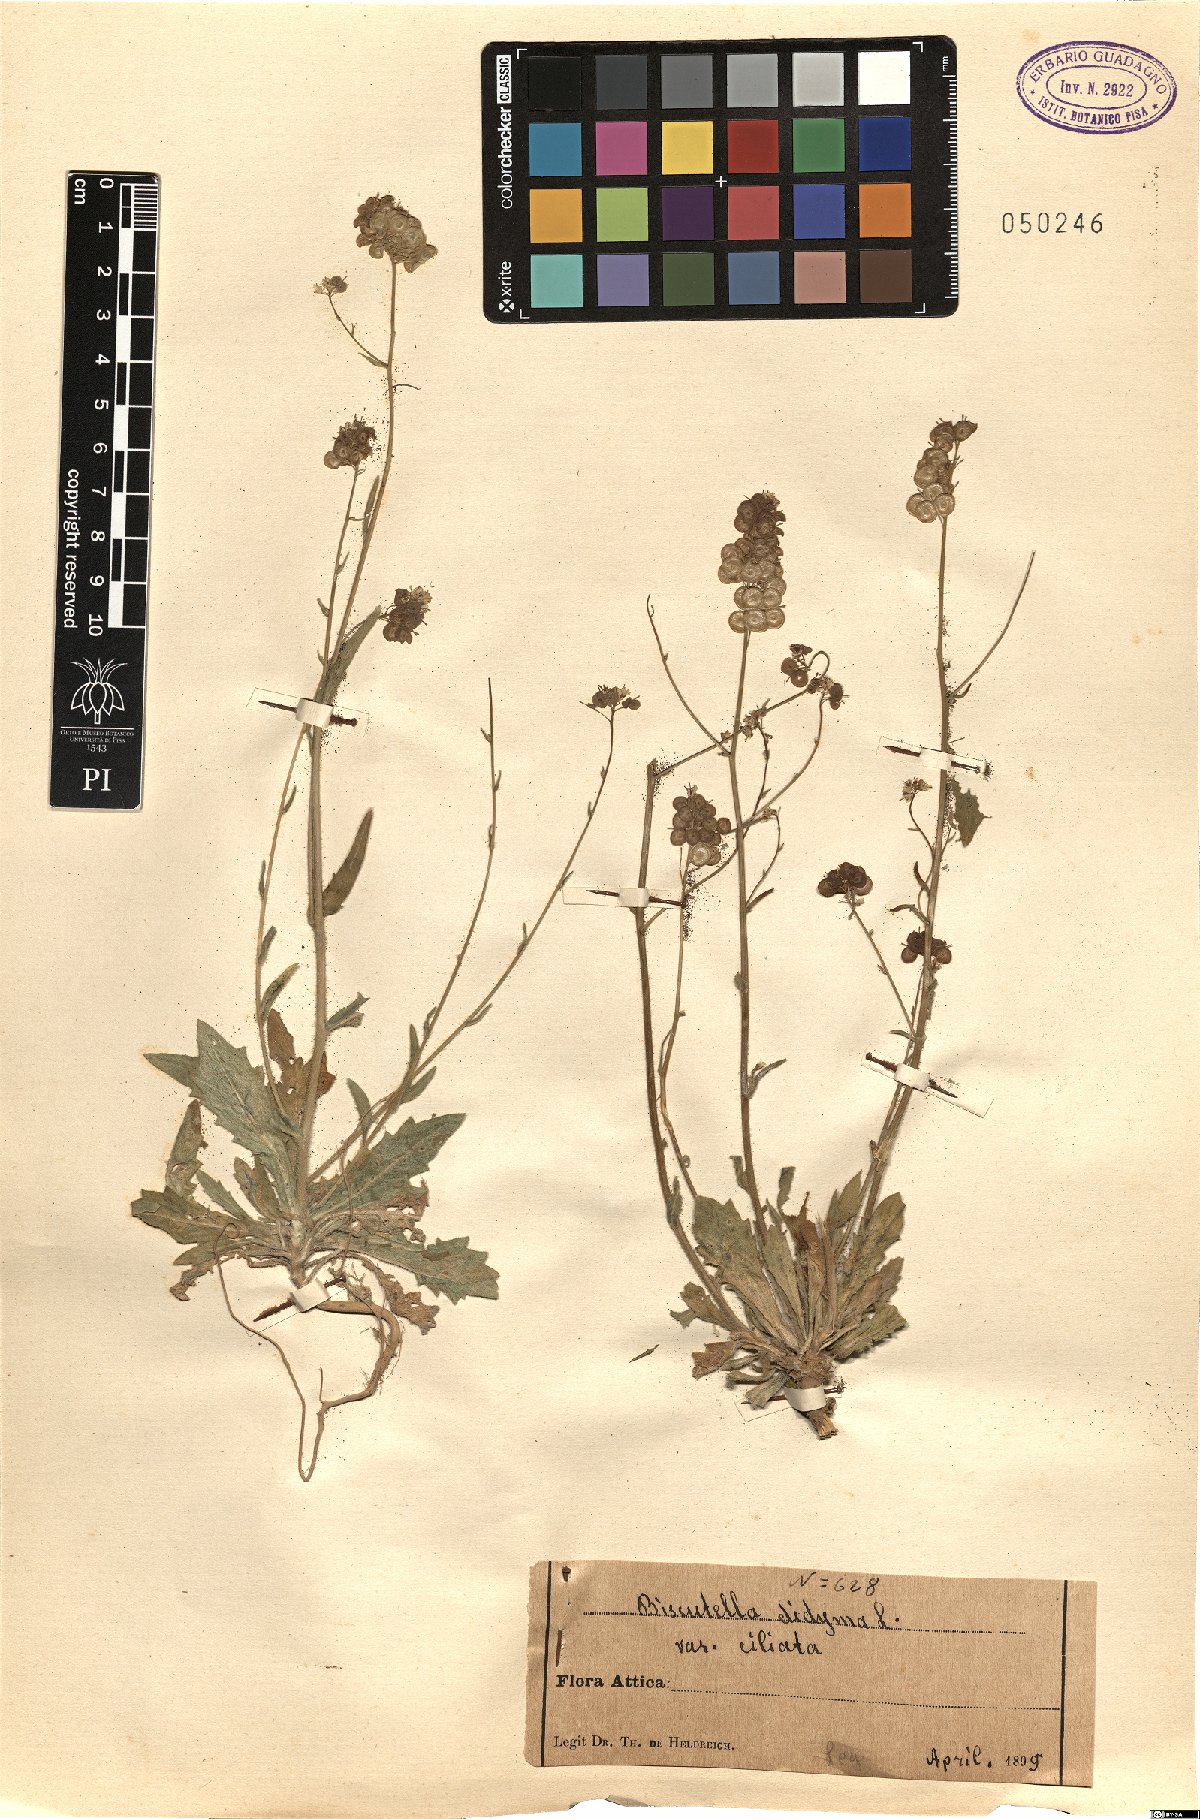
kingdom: Plantae
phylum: Tracheophyta
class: Magnoliopsida
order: Brassicales
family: Brassicaceae
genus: Biscutella
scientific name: Biscutella didyma
